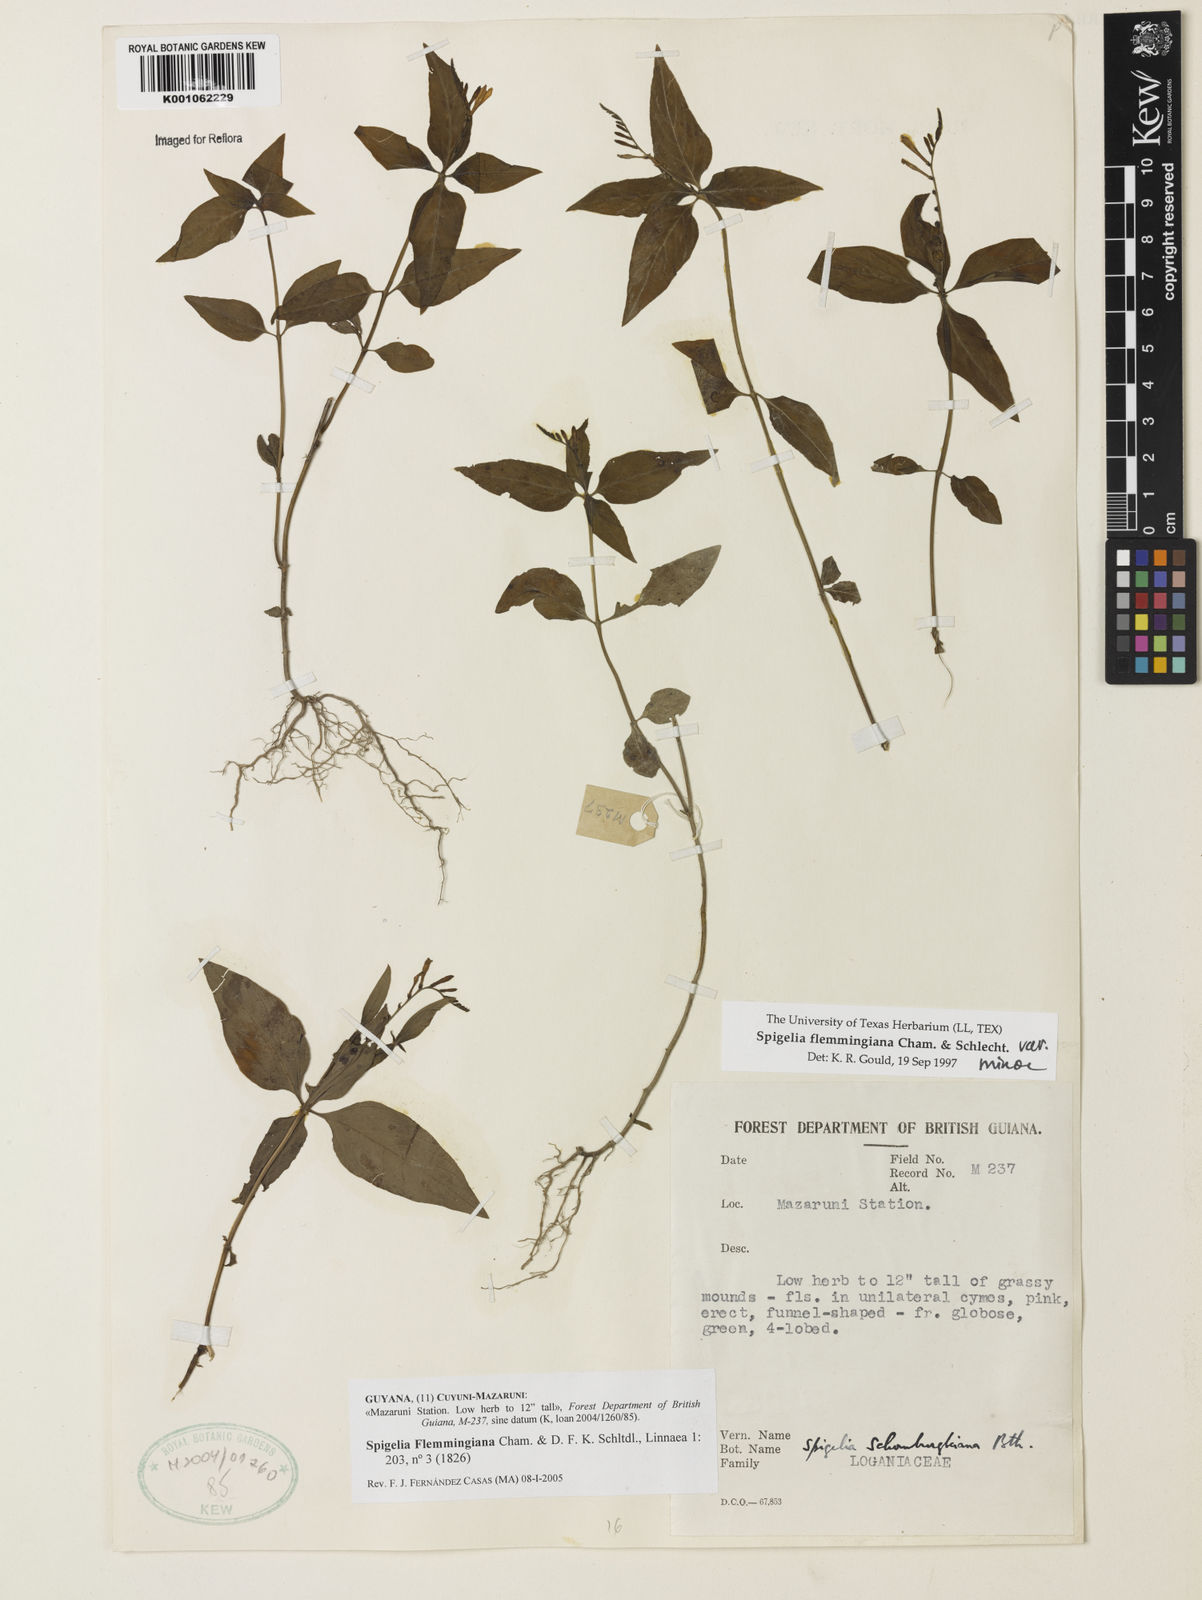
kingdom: Plantae
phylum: Tracheophyta
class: Magnoliopsida
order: Gentianales
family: Loganiaceae
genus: Spigelia
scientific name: Spigelia flemmingiana
